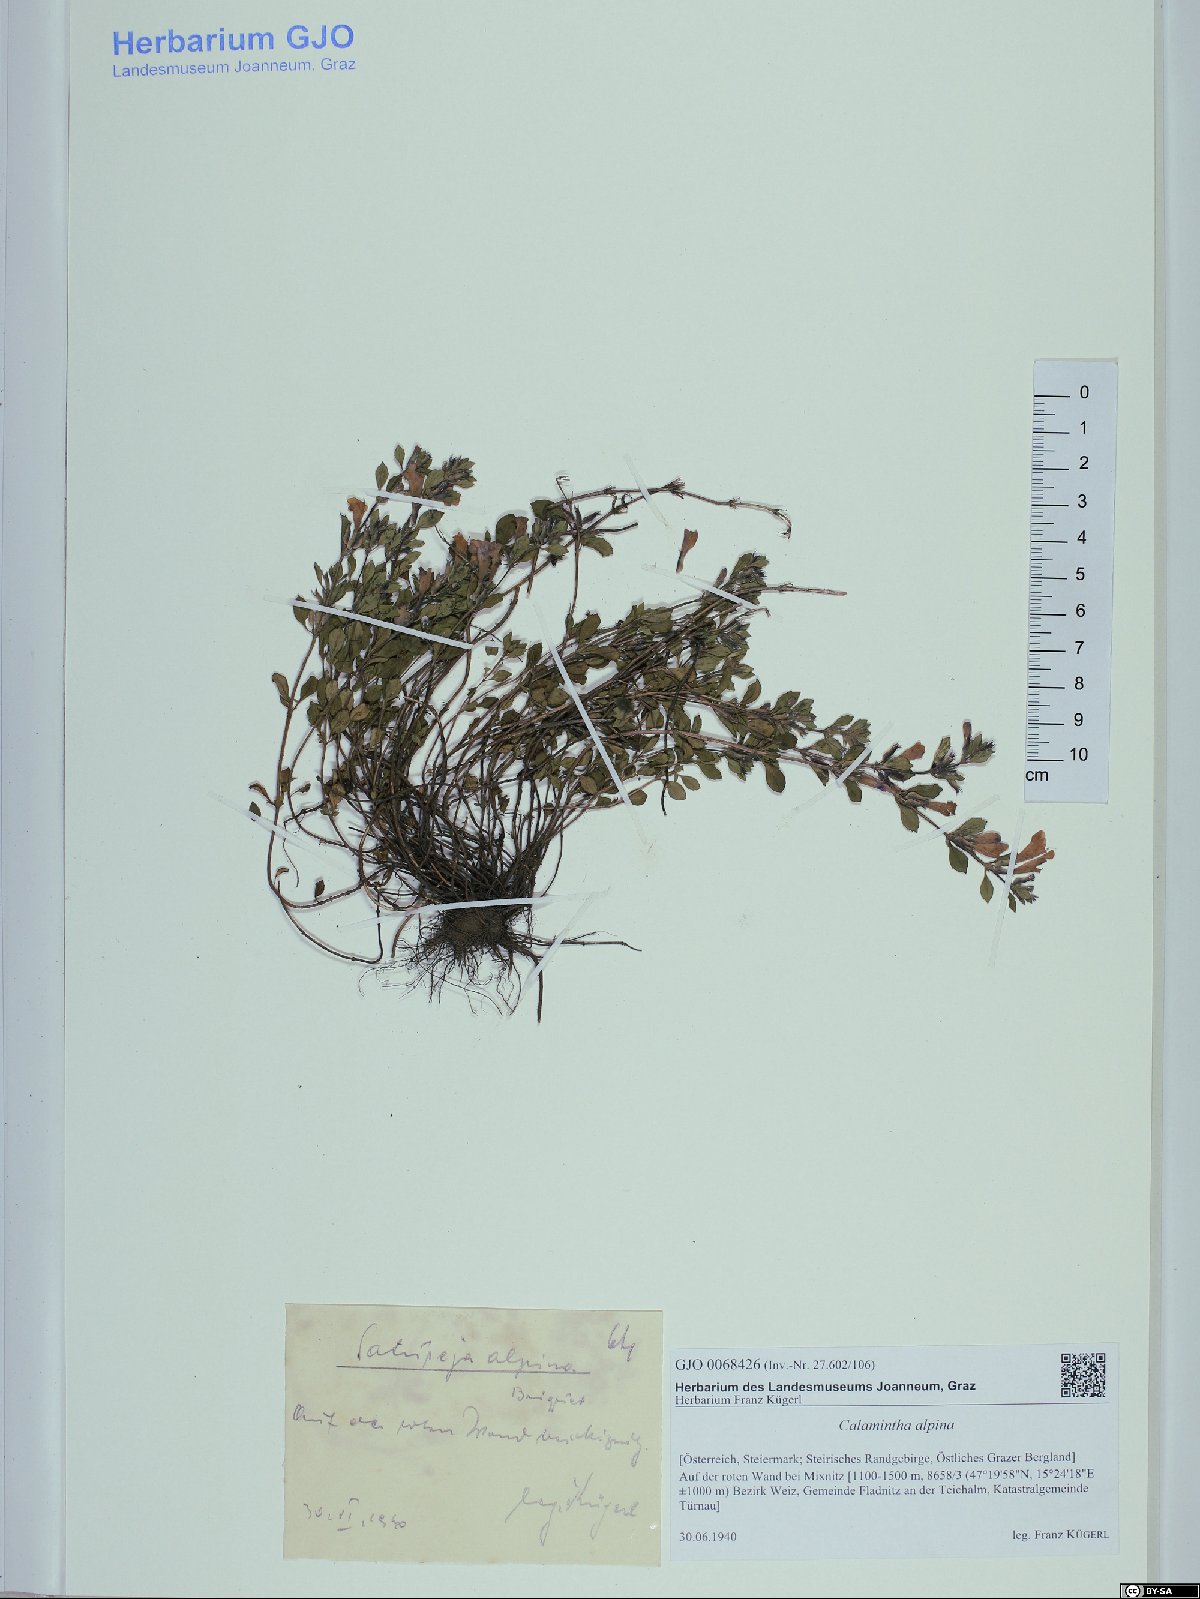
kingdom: Plantae
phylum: Tracheophyta
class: Magnoliopsida
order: Lamiales
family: Lamiaceae
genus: Clinopodium
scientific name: Clinopodium alpinum
